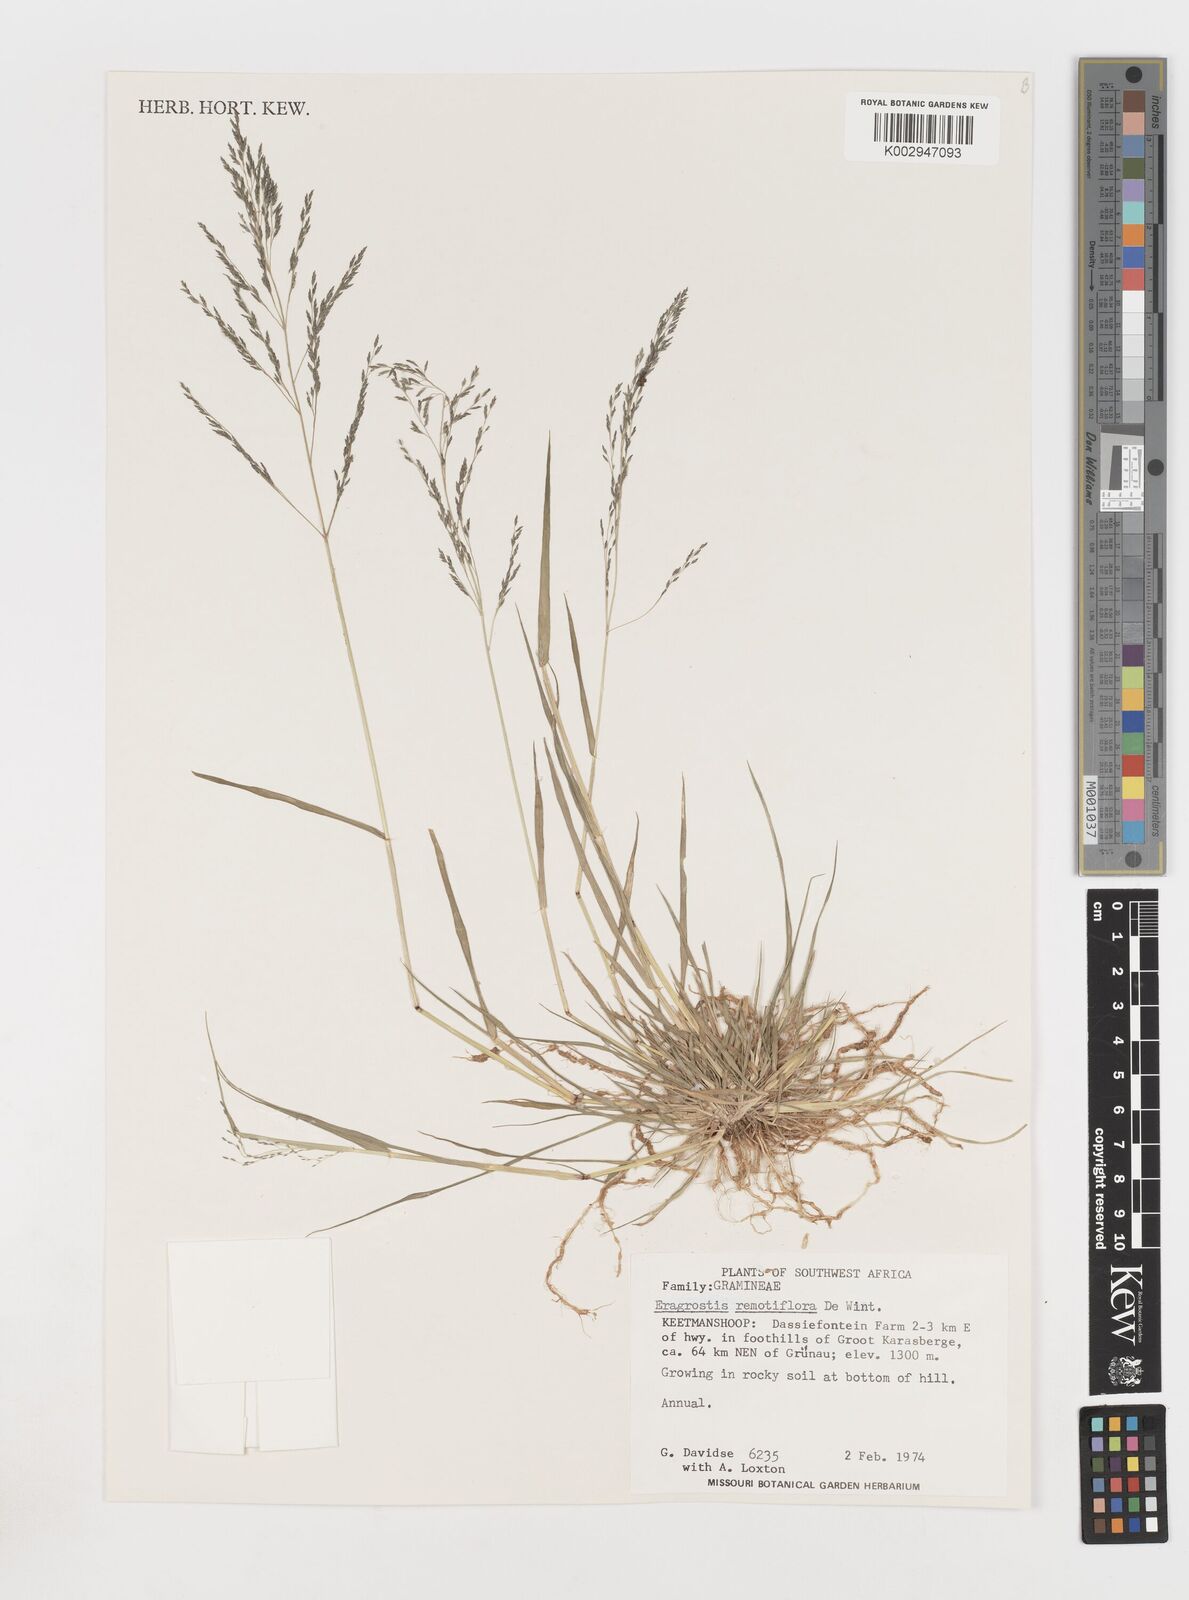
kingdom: Plantae
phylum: Tracheophyta
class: Liliopsida
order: Poales
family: Poaceae
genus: Eragrostis
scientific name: Eragrostis remotiflora
